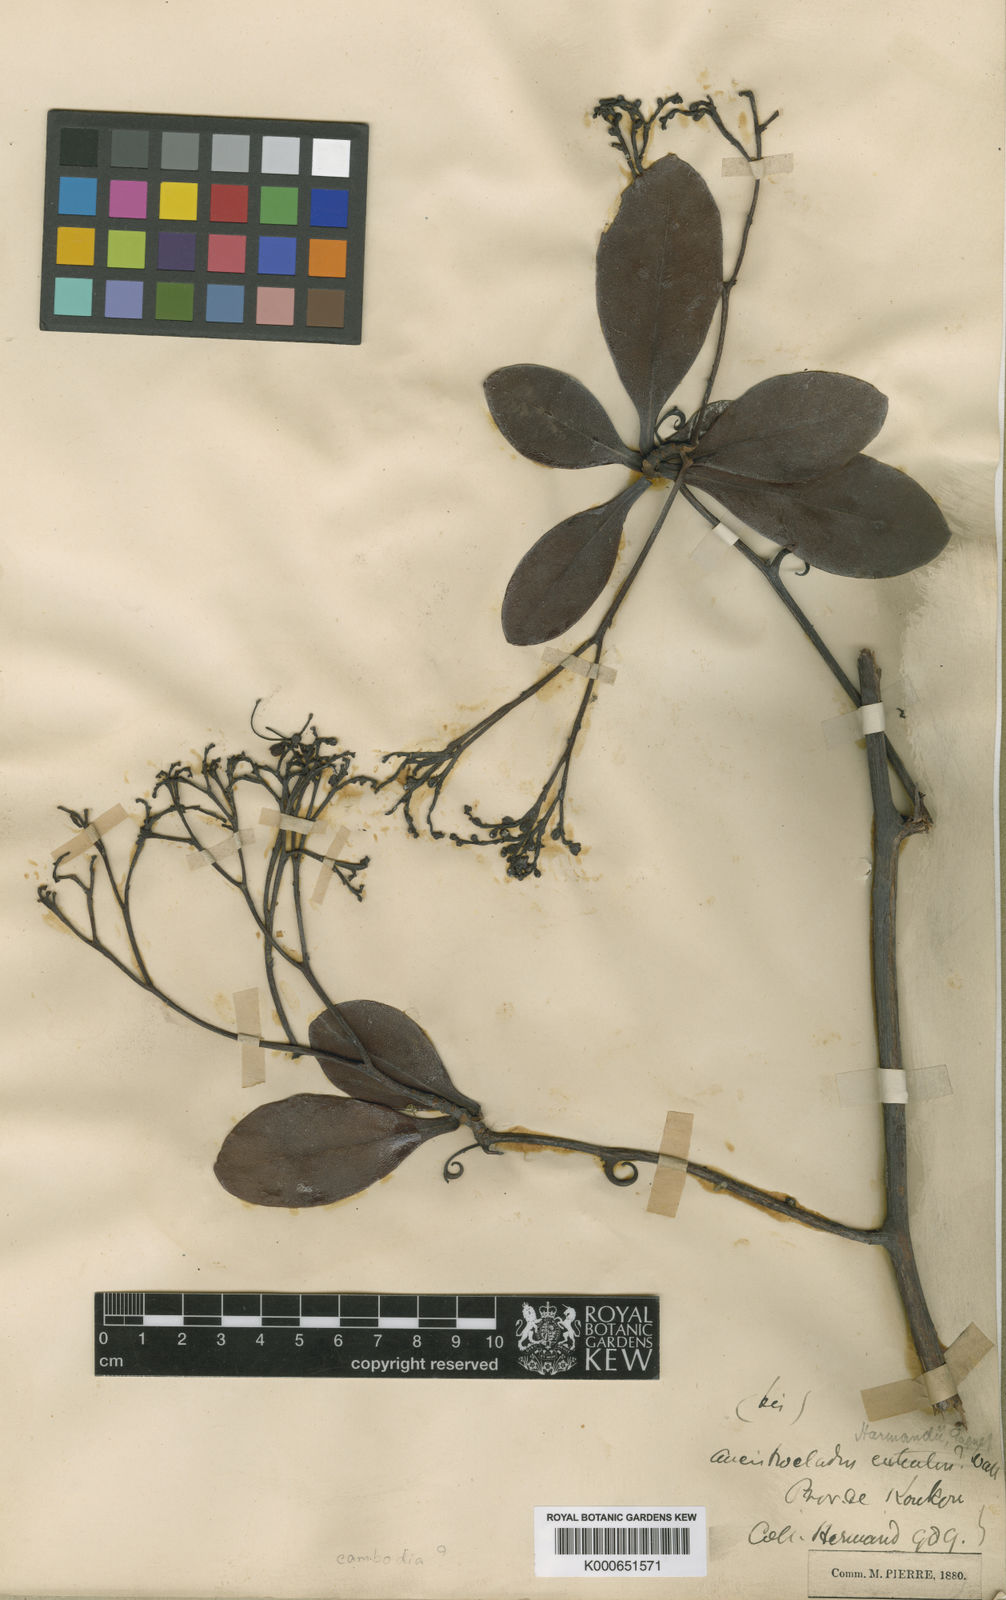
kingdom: Plantae
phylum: Tracheophyta
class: Magnoliopsida
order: Caryophyllales
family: Ancistrocladaceae
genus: Ancistrocladus
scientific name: Ancistrocladus tectorius
